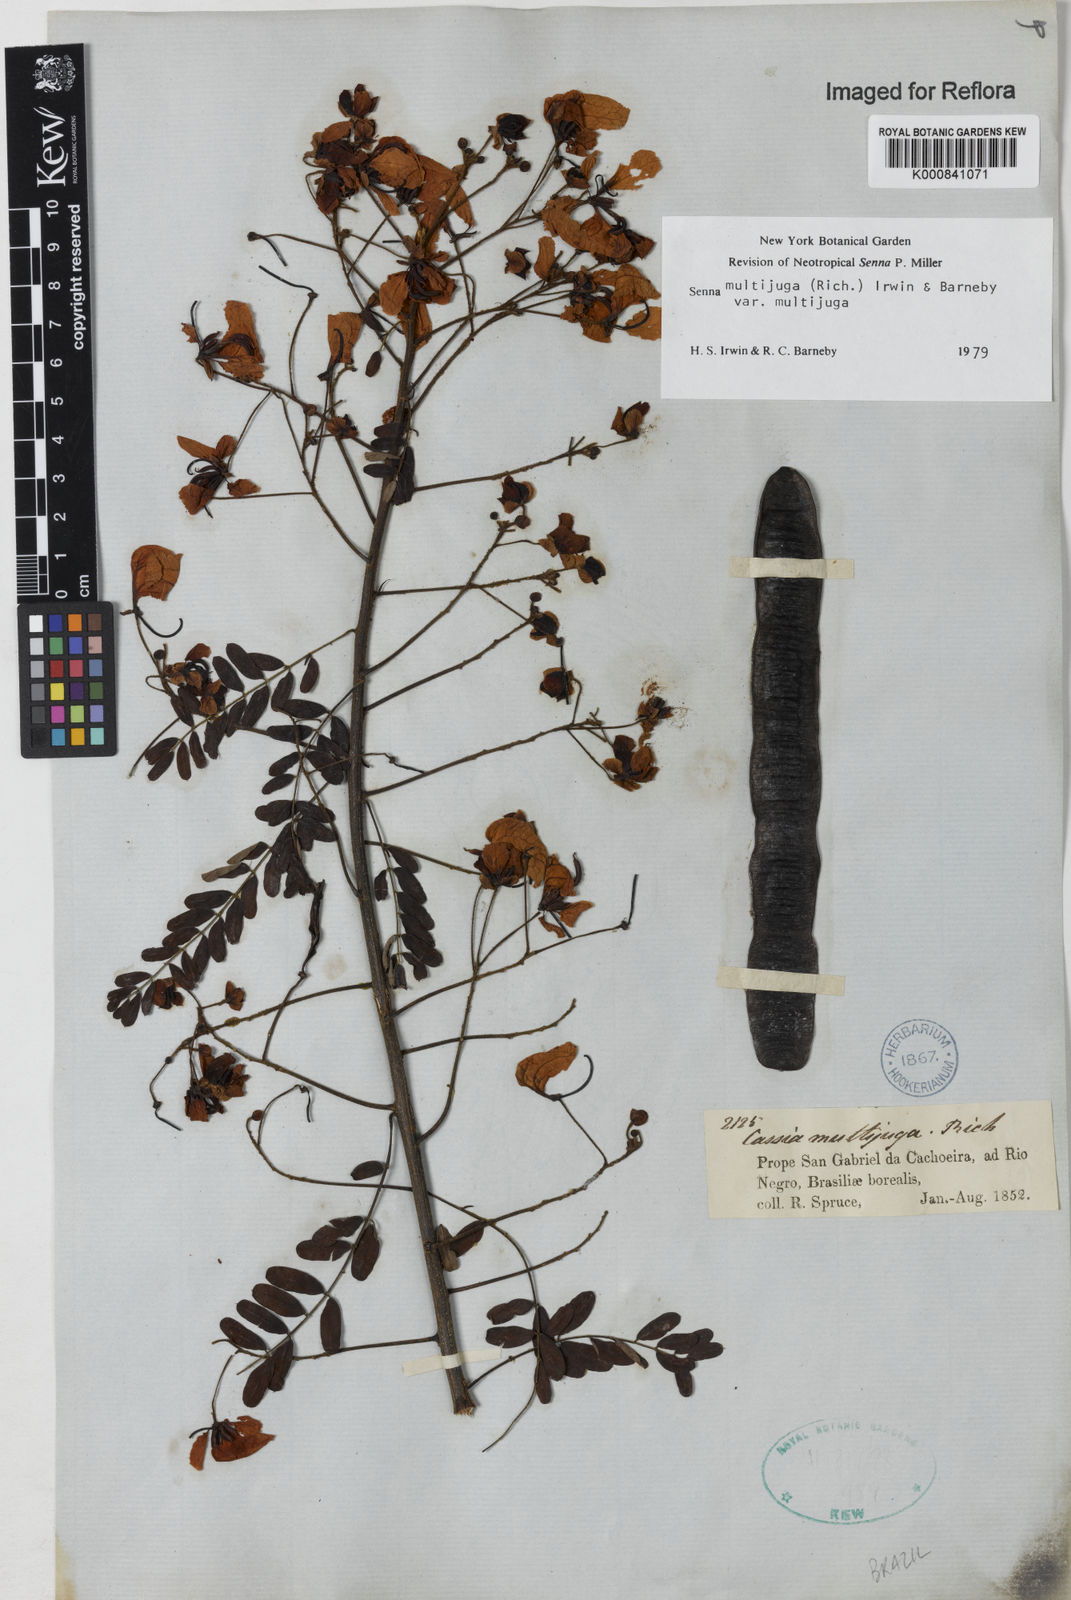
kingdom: Plantae
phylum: Tracheophyta
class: Magnoliopsida
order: Fabales
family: Fabaceae
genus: Senna
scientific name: Senna multijuga
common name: False sicklepod
